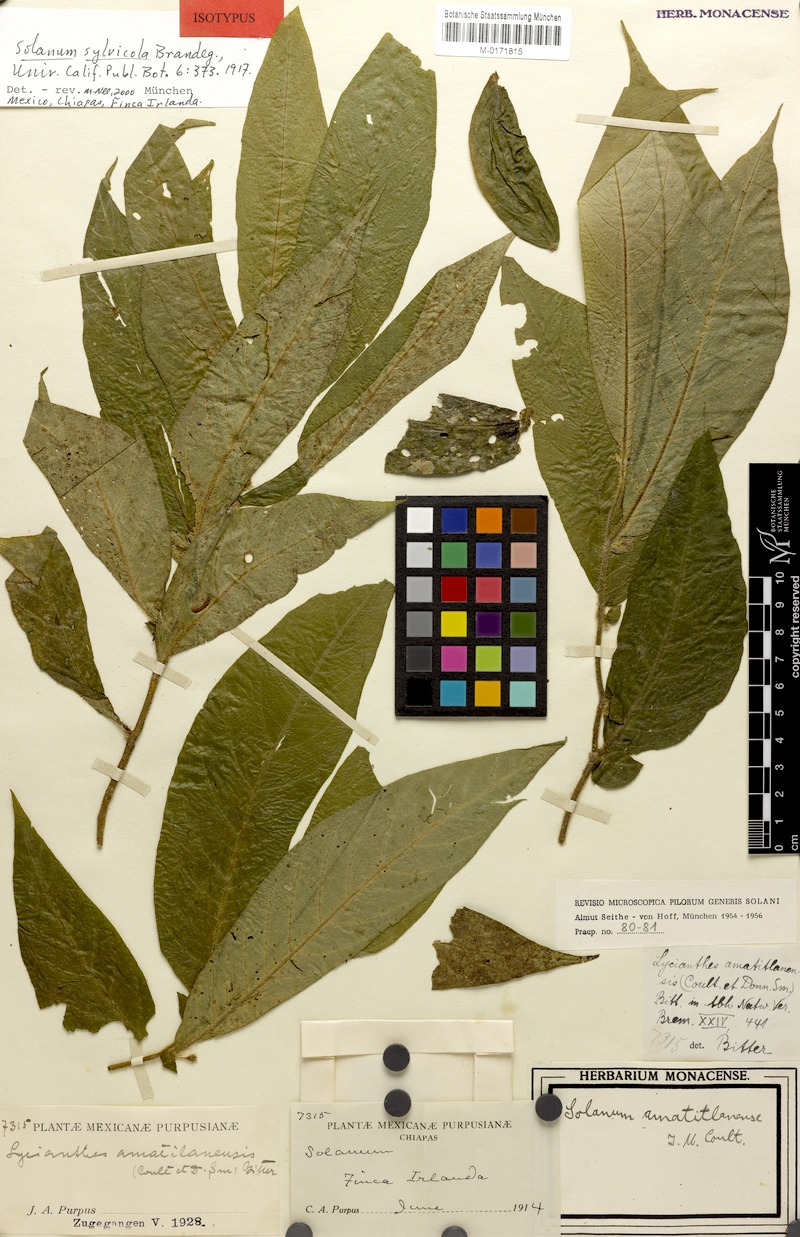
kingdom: Plantae
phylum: Tracheophyta
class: Magnoliopsida
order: Solanales
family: Solanaceae
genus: Lycianthes
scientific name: Lycianthes amatitlanensis
